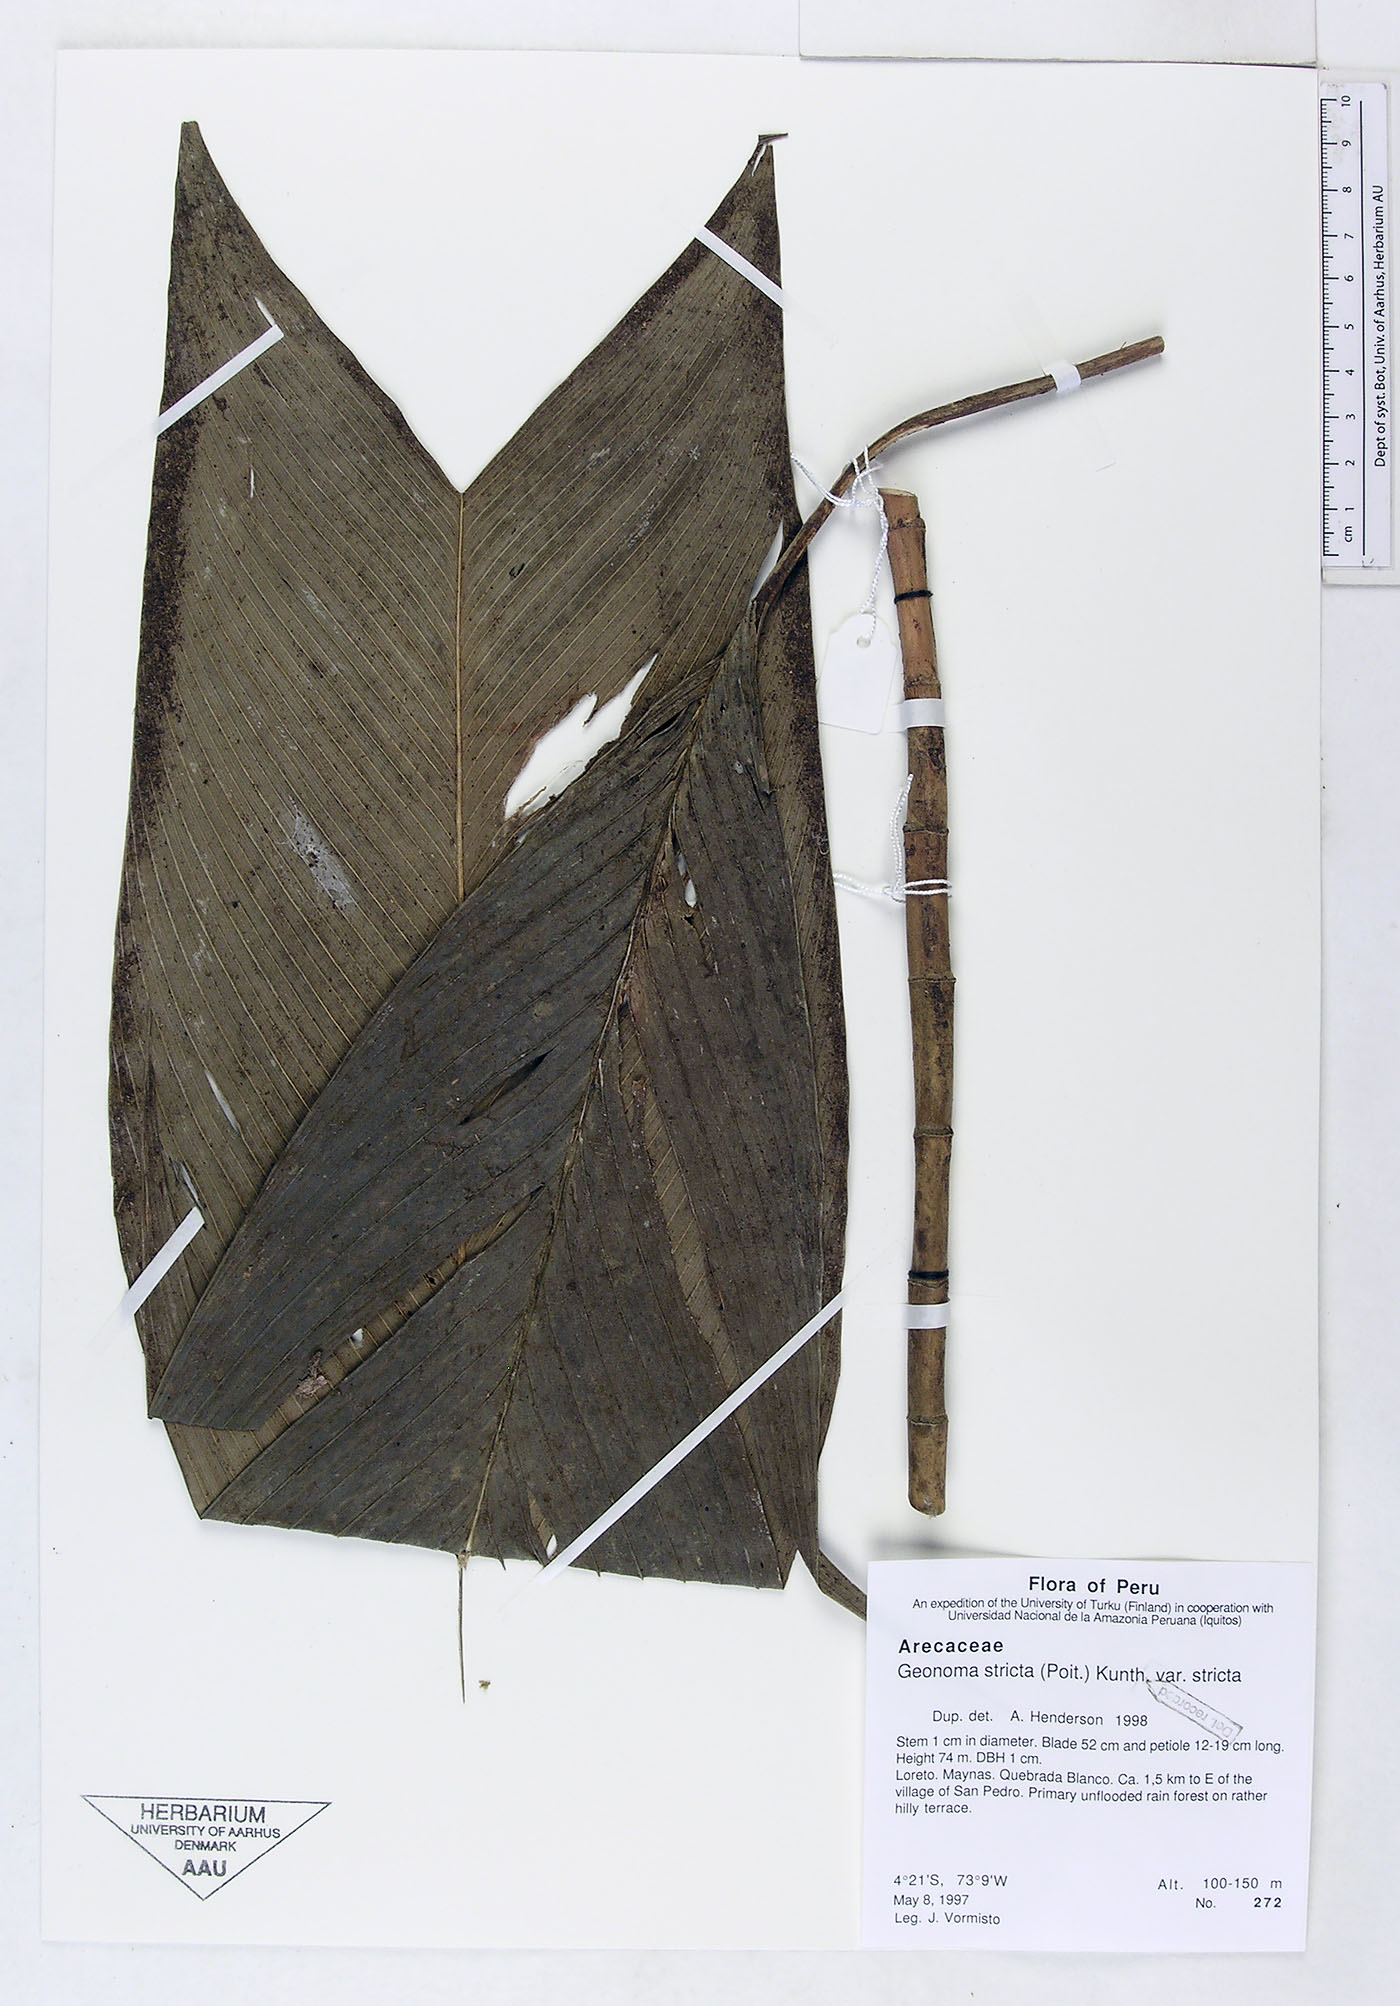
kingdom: Plantae
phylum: Tracheophyta
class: Liliopsida
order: Arecales
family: Arecaceae
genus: Geonoma
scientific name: Geonoma stricta
